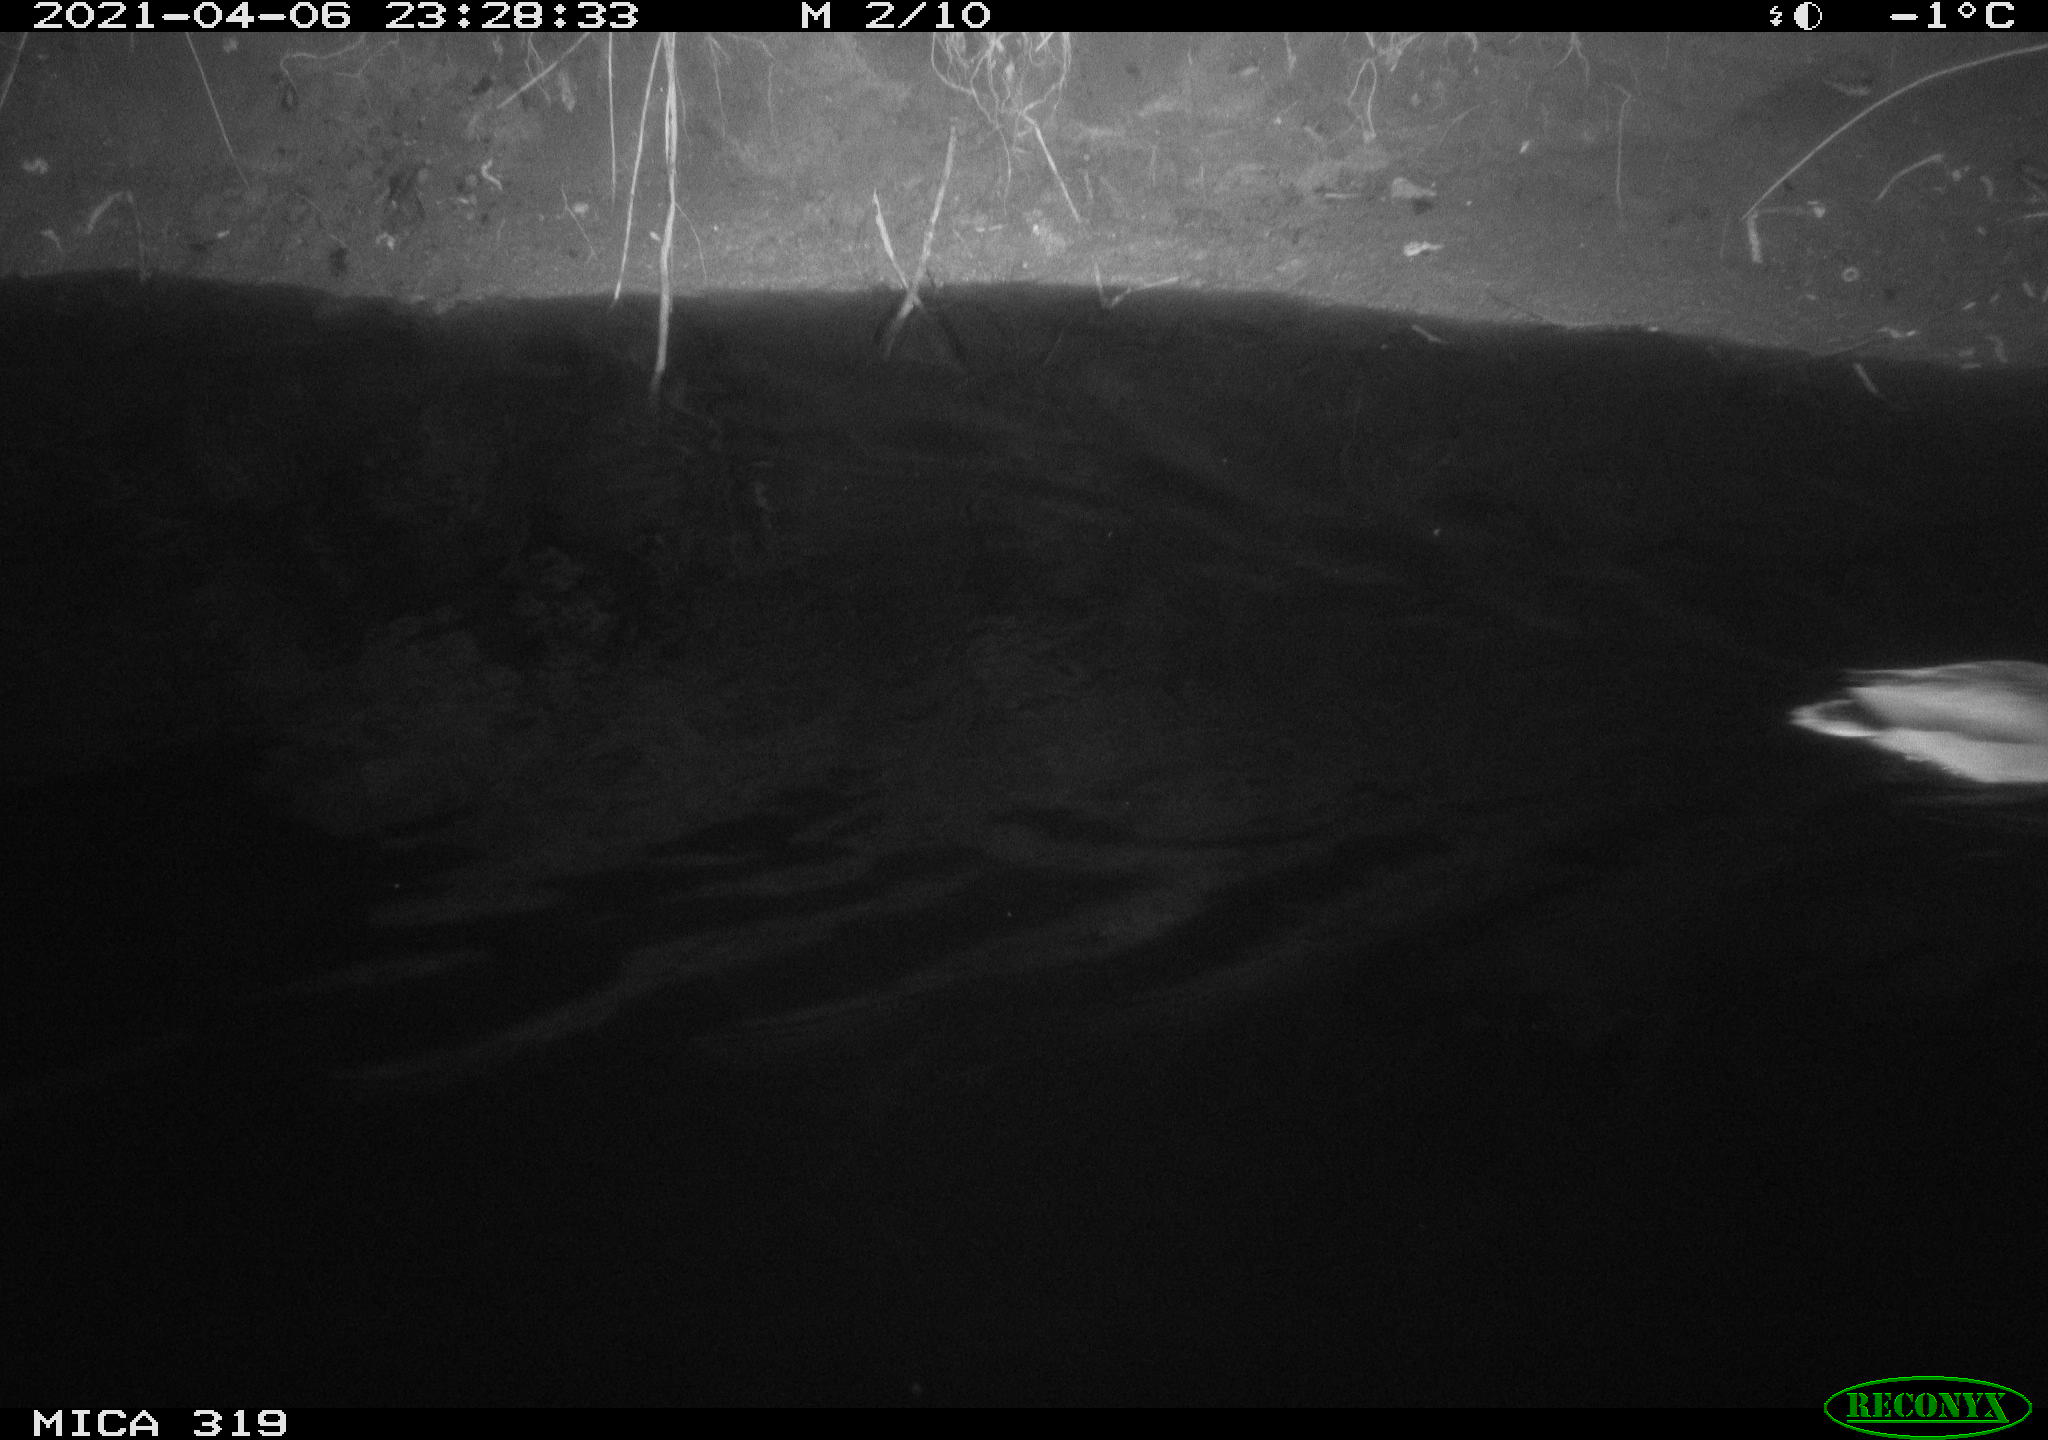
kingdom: Animalia
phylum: Chordata
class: Aves
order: Anseriformes
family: Anatidae
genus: Anas
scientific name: Anas platyrhynchos
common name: Mallard
